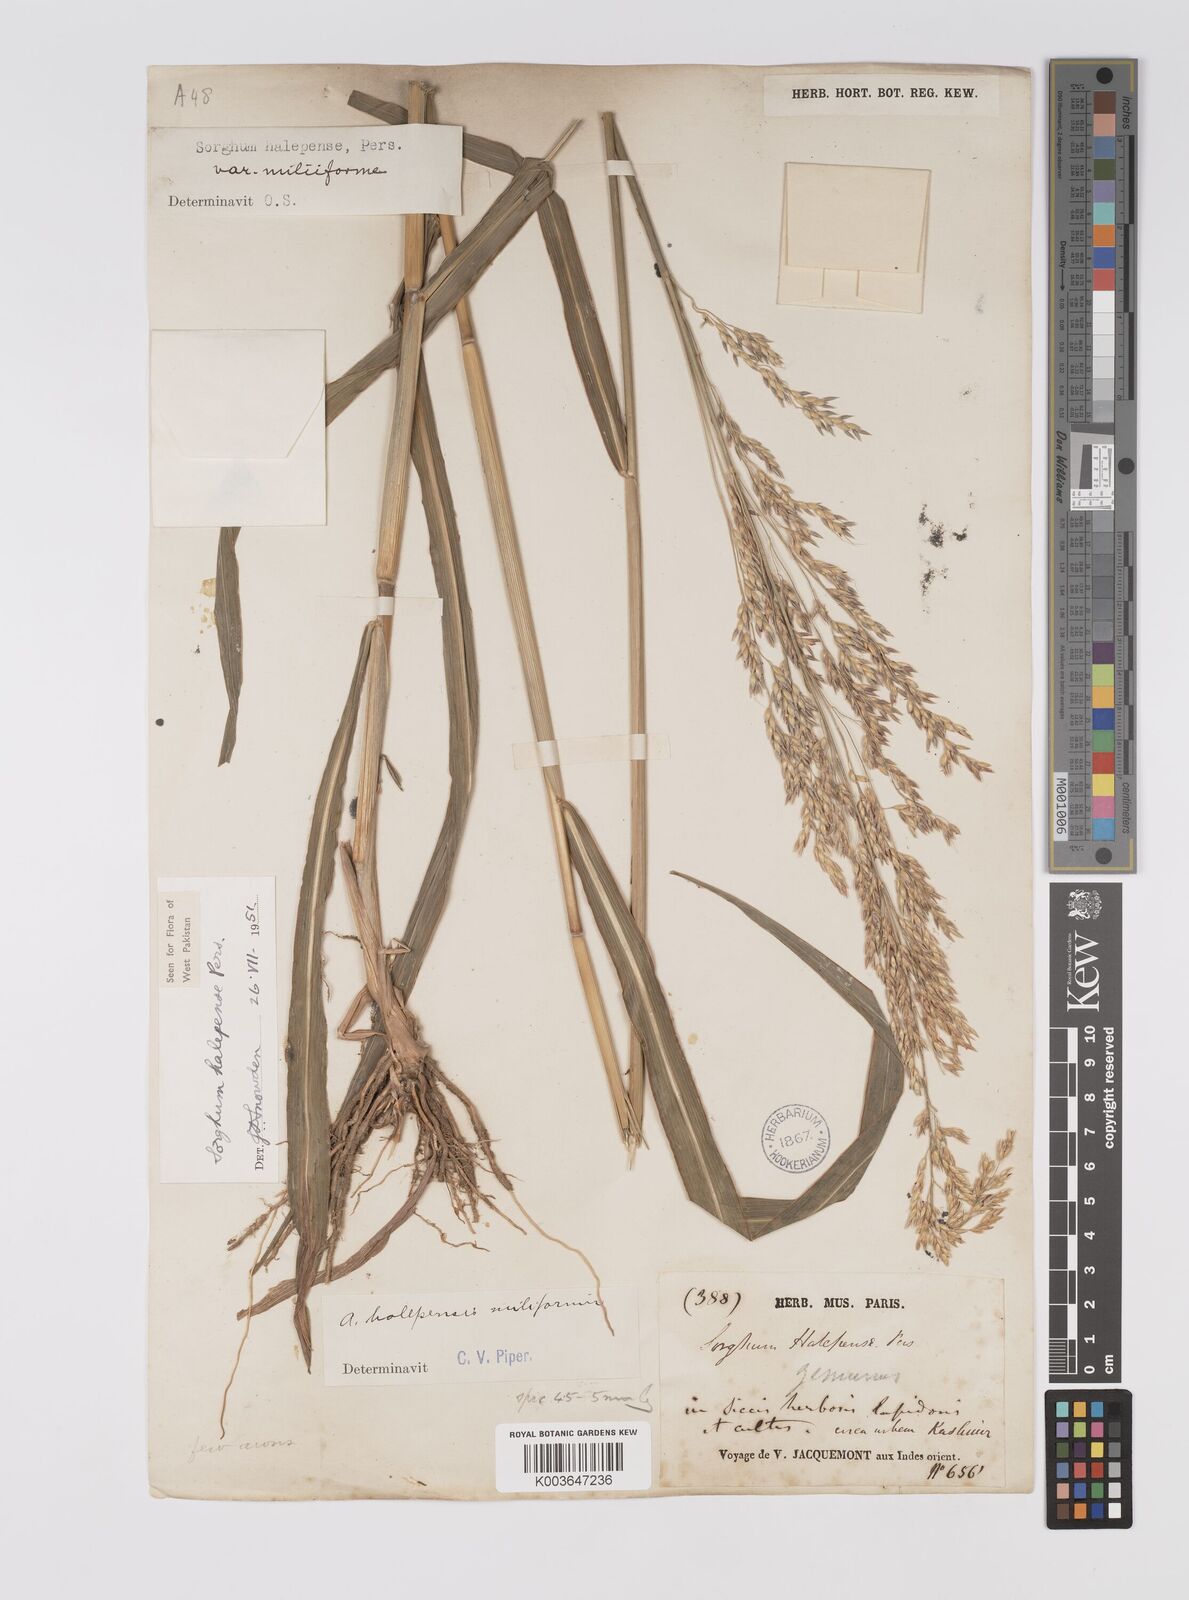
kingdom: Plantae
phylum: Tracheophyta
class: Liliopsida
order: Poales
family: Poaceae
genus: Sorghum
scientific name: Sorghum halepense
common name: Johnson-grass
